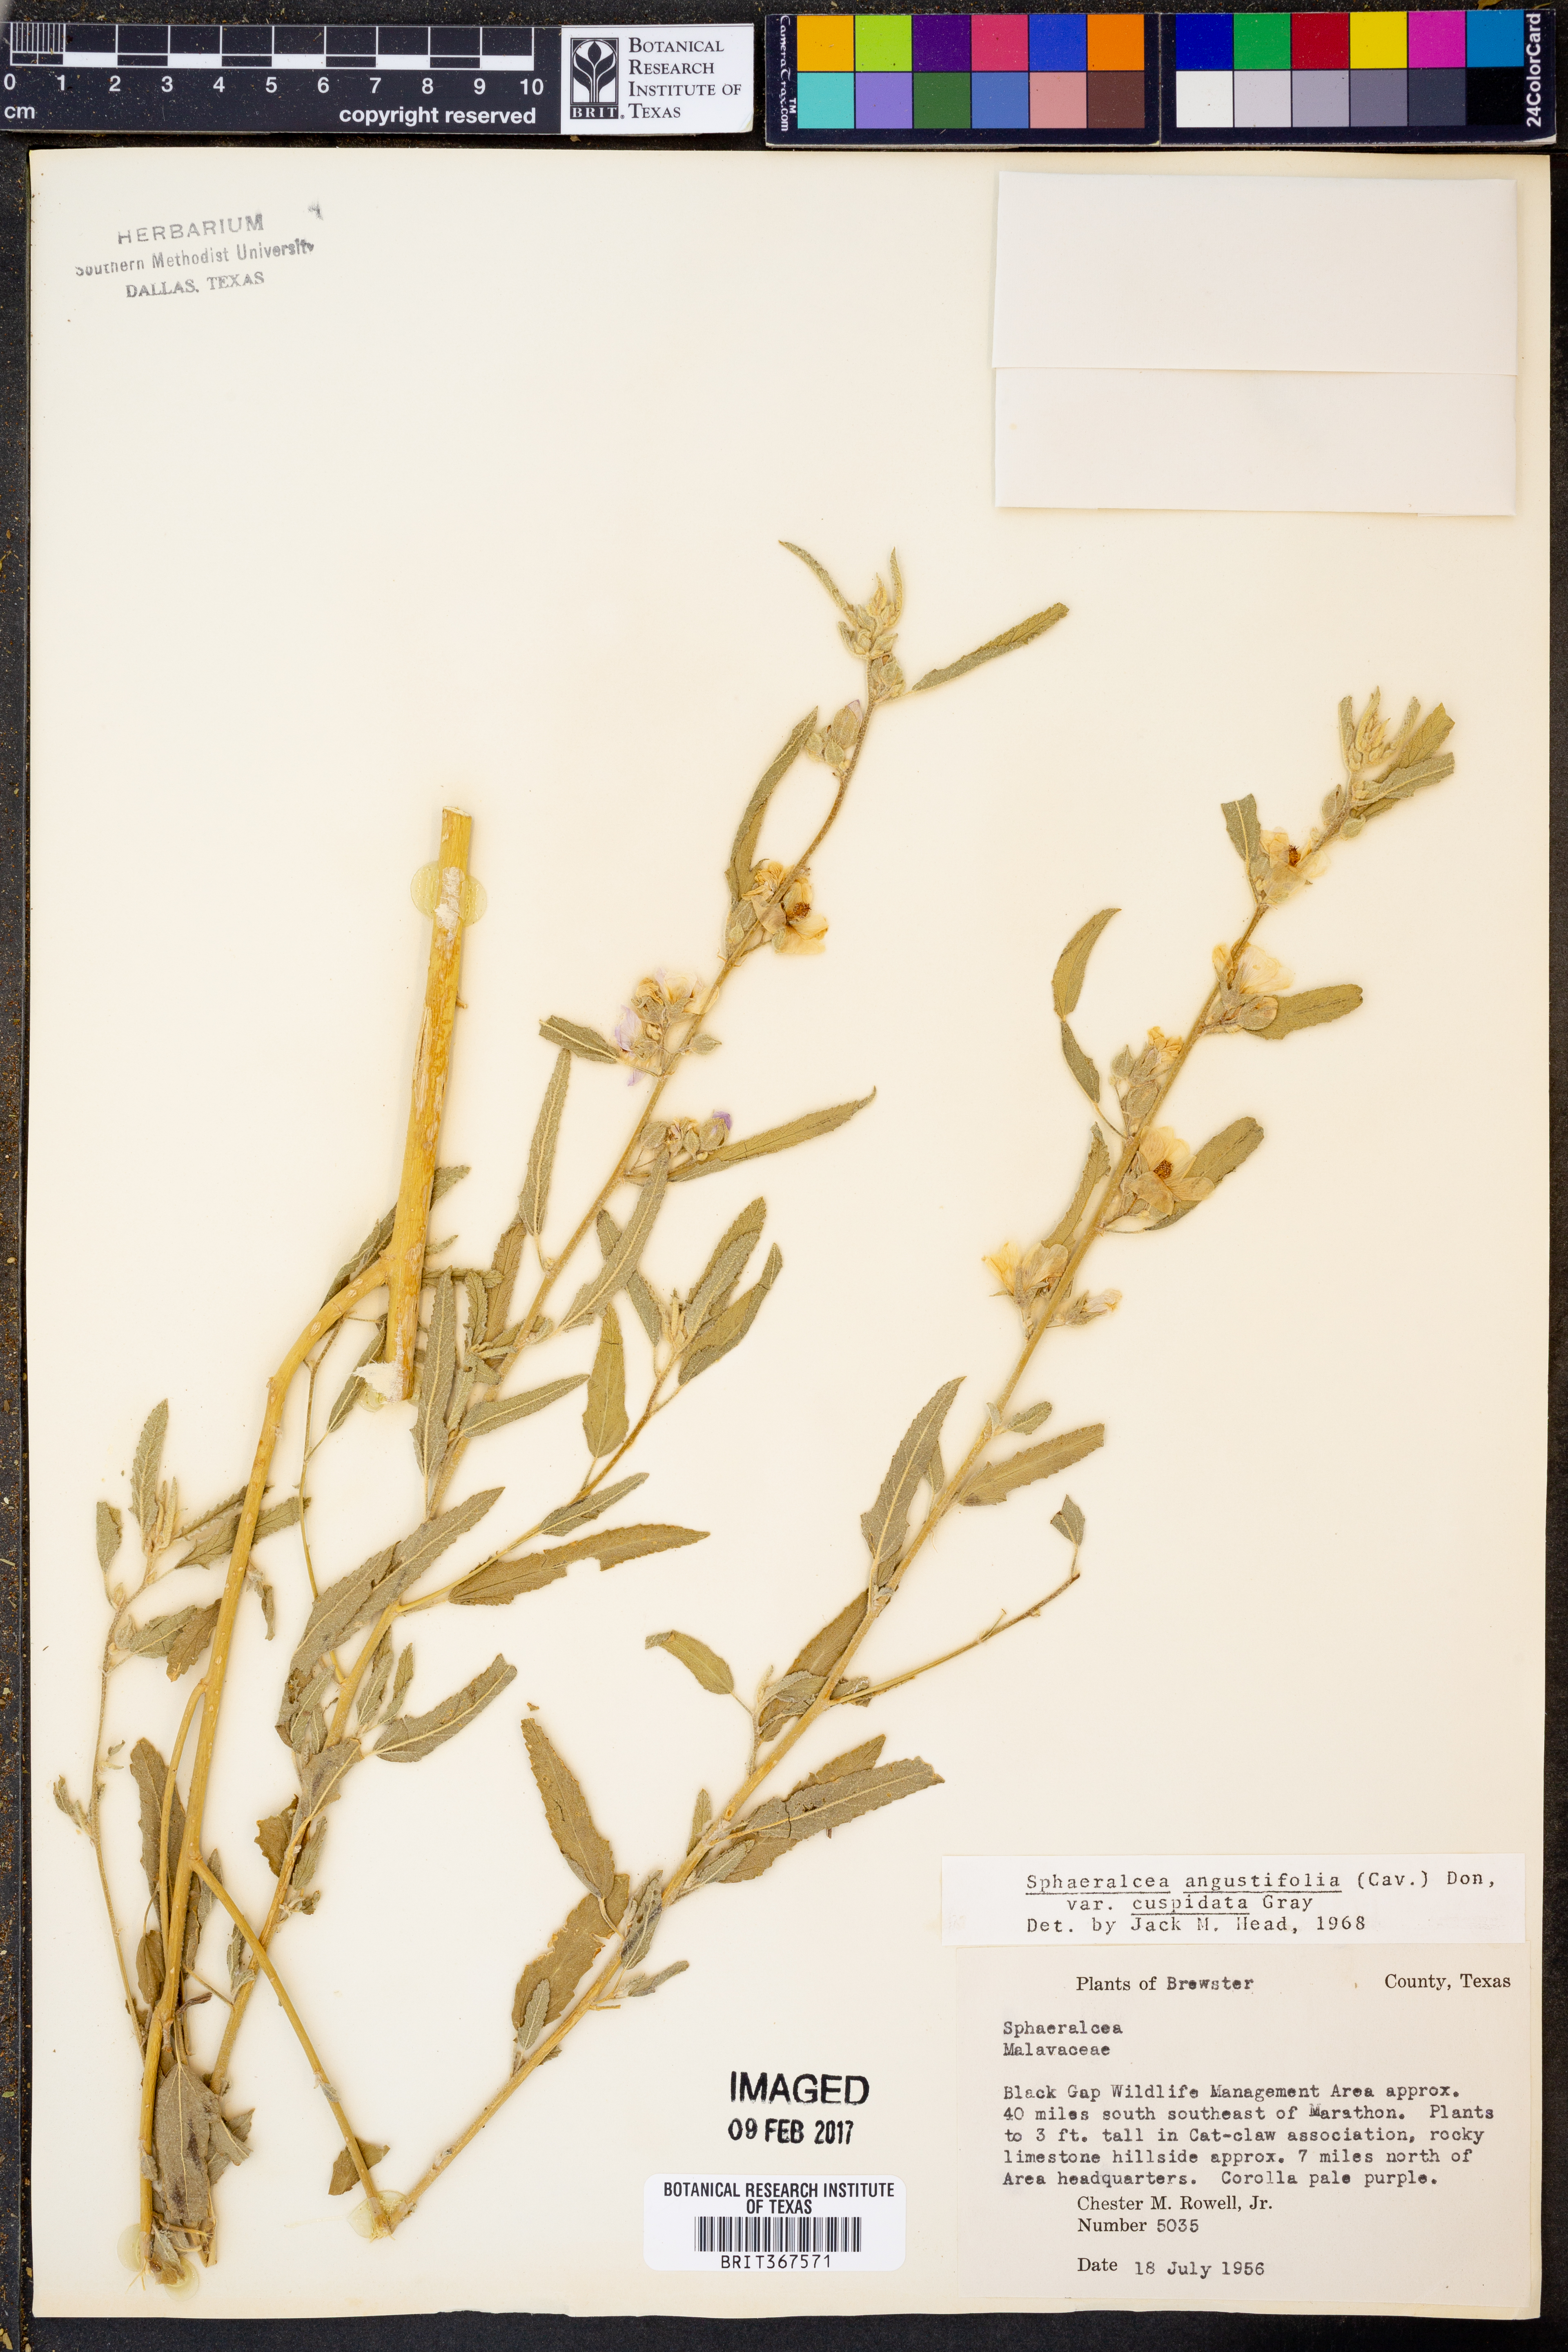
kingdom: Plantae
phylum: Tracheophyta
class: Magnoliopsida
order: Malvales
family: Malvaceae
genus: Sphaeralcea
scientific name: Sphaeralcea angustifolia
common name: Copper globe-mallow
